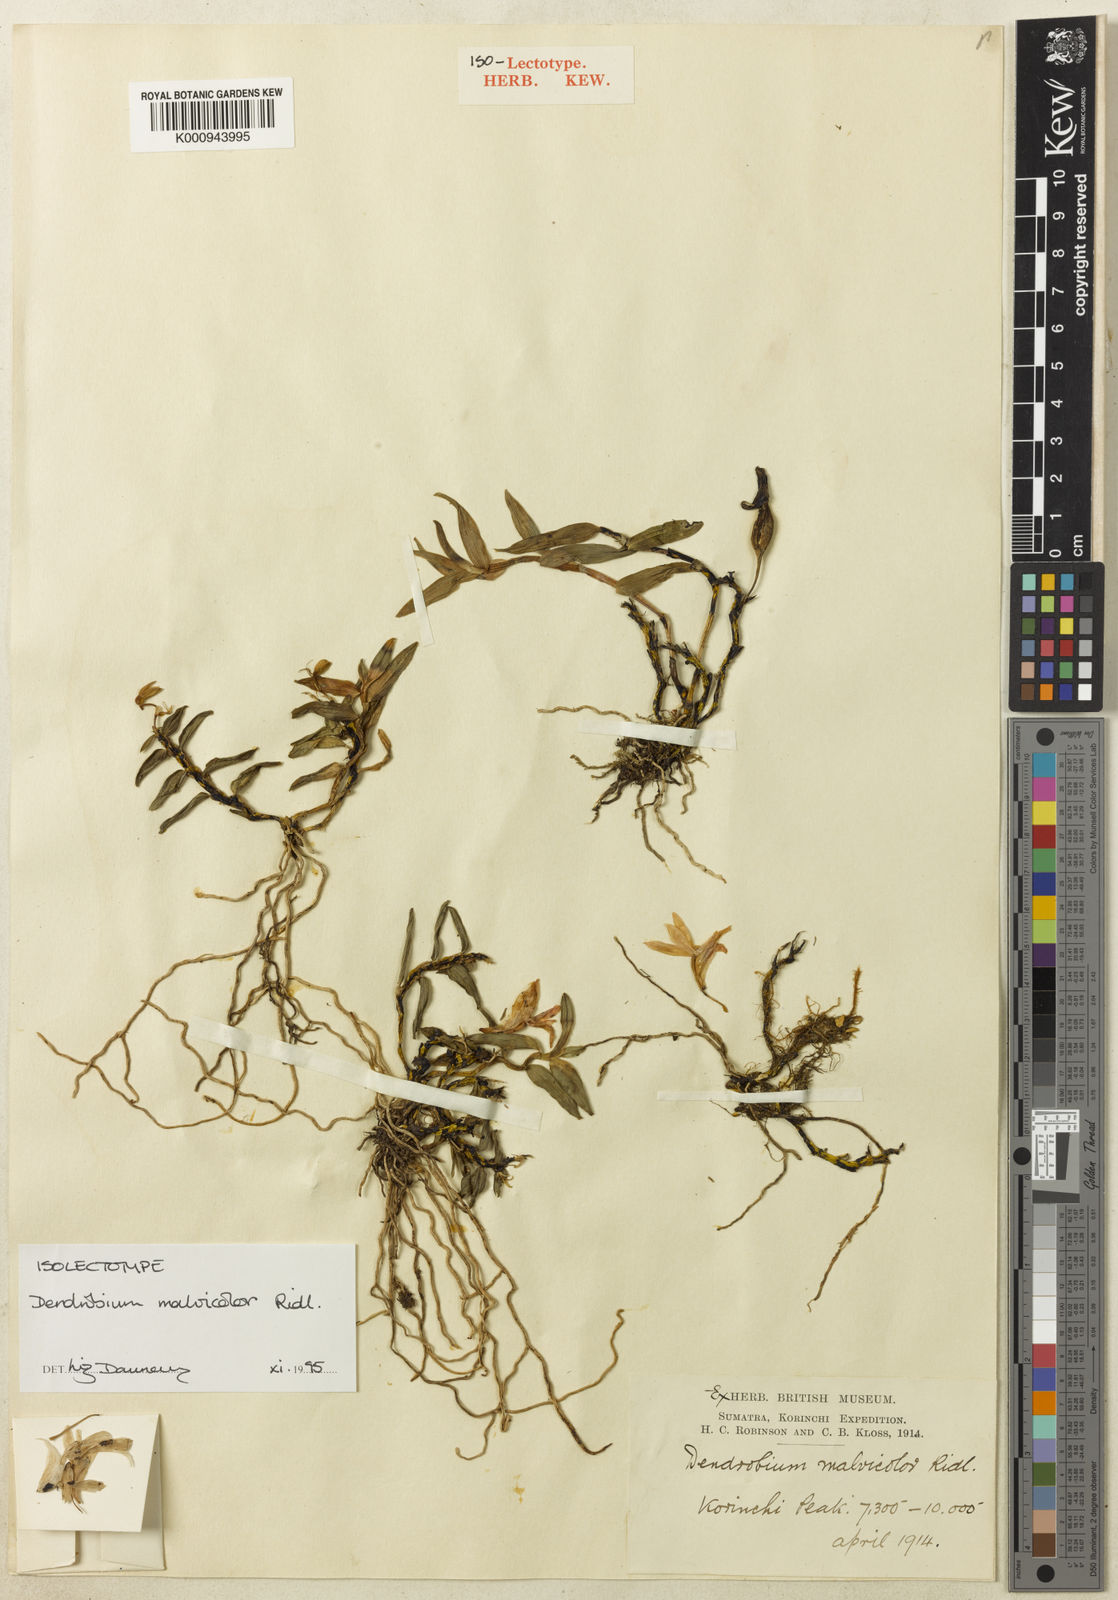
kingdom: Plantae
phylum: Tracheophyta
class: Liliopsida
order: Asparagales
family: Orchidaceae
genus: Dendrobium
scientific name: Dendrobium malvicolor
